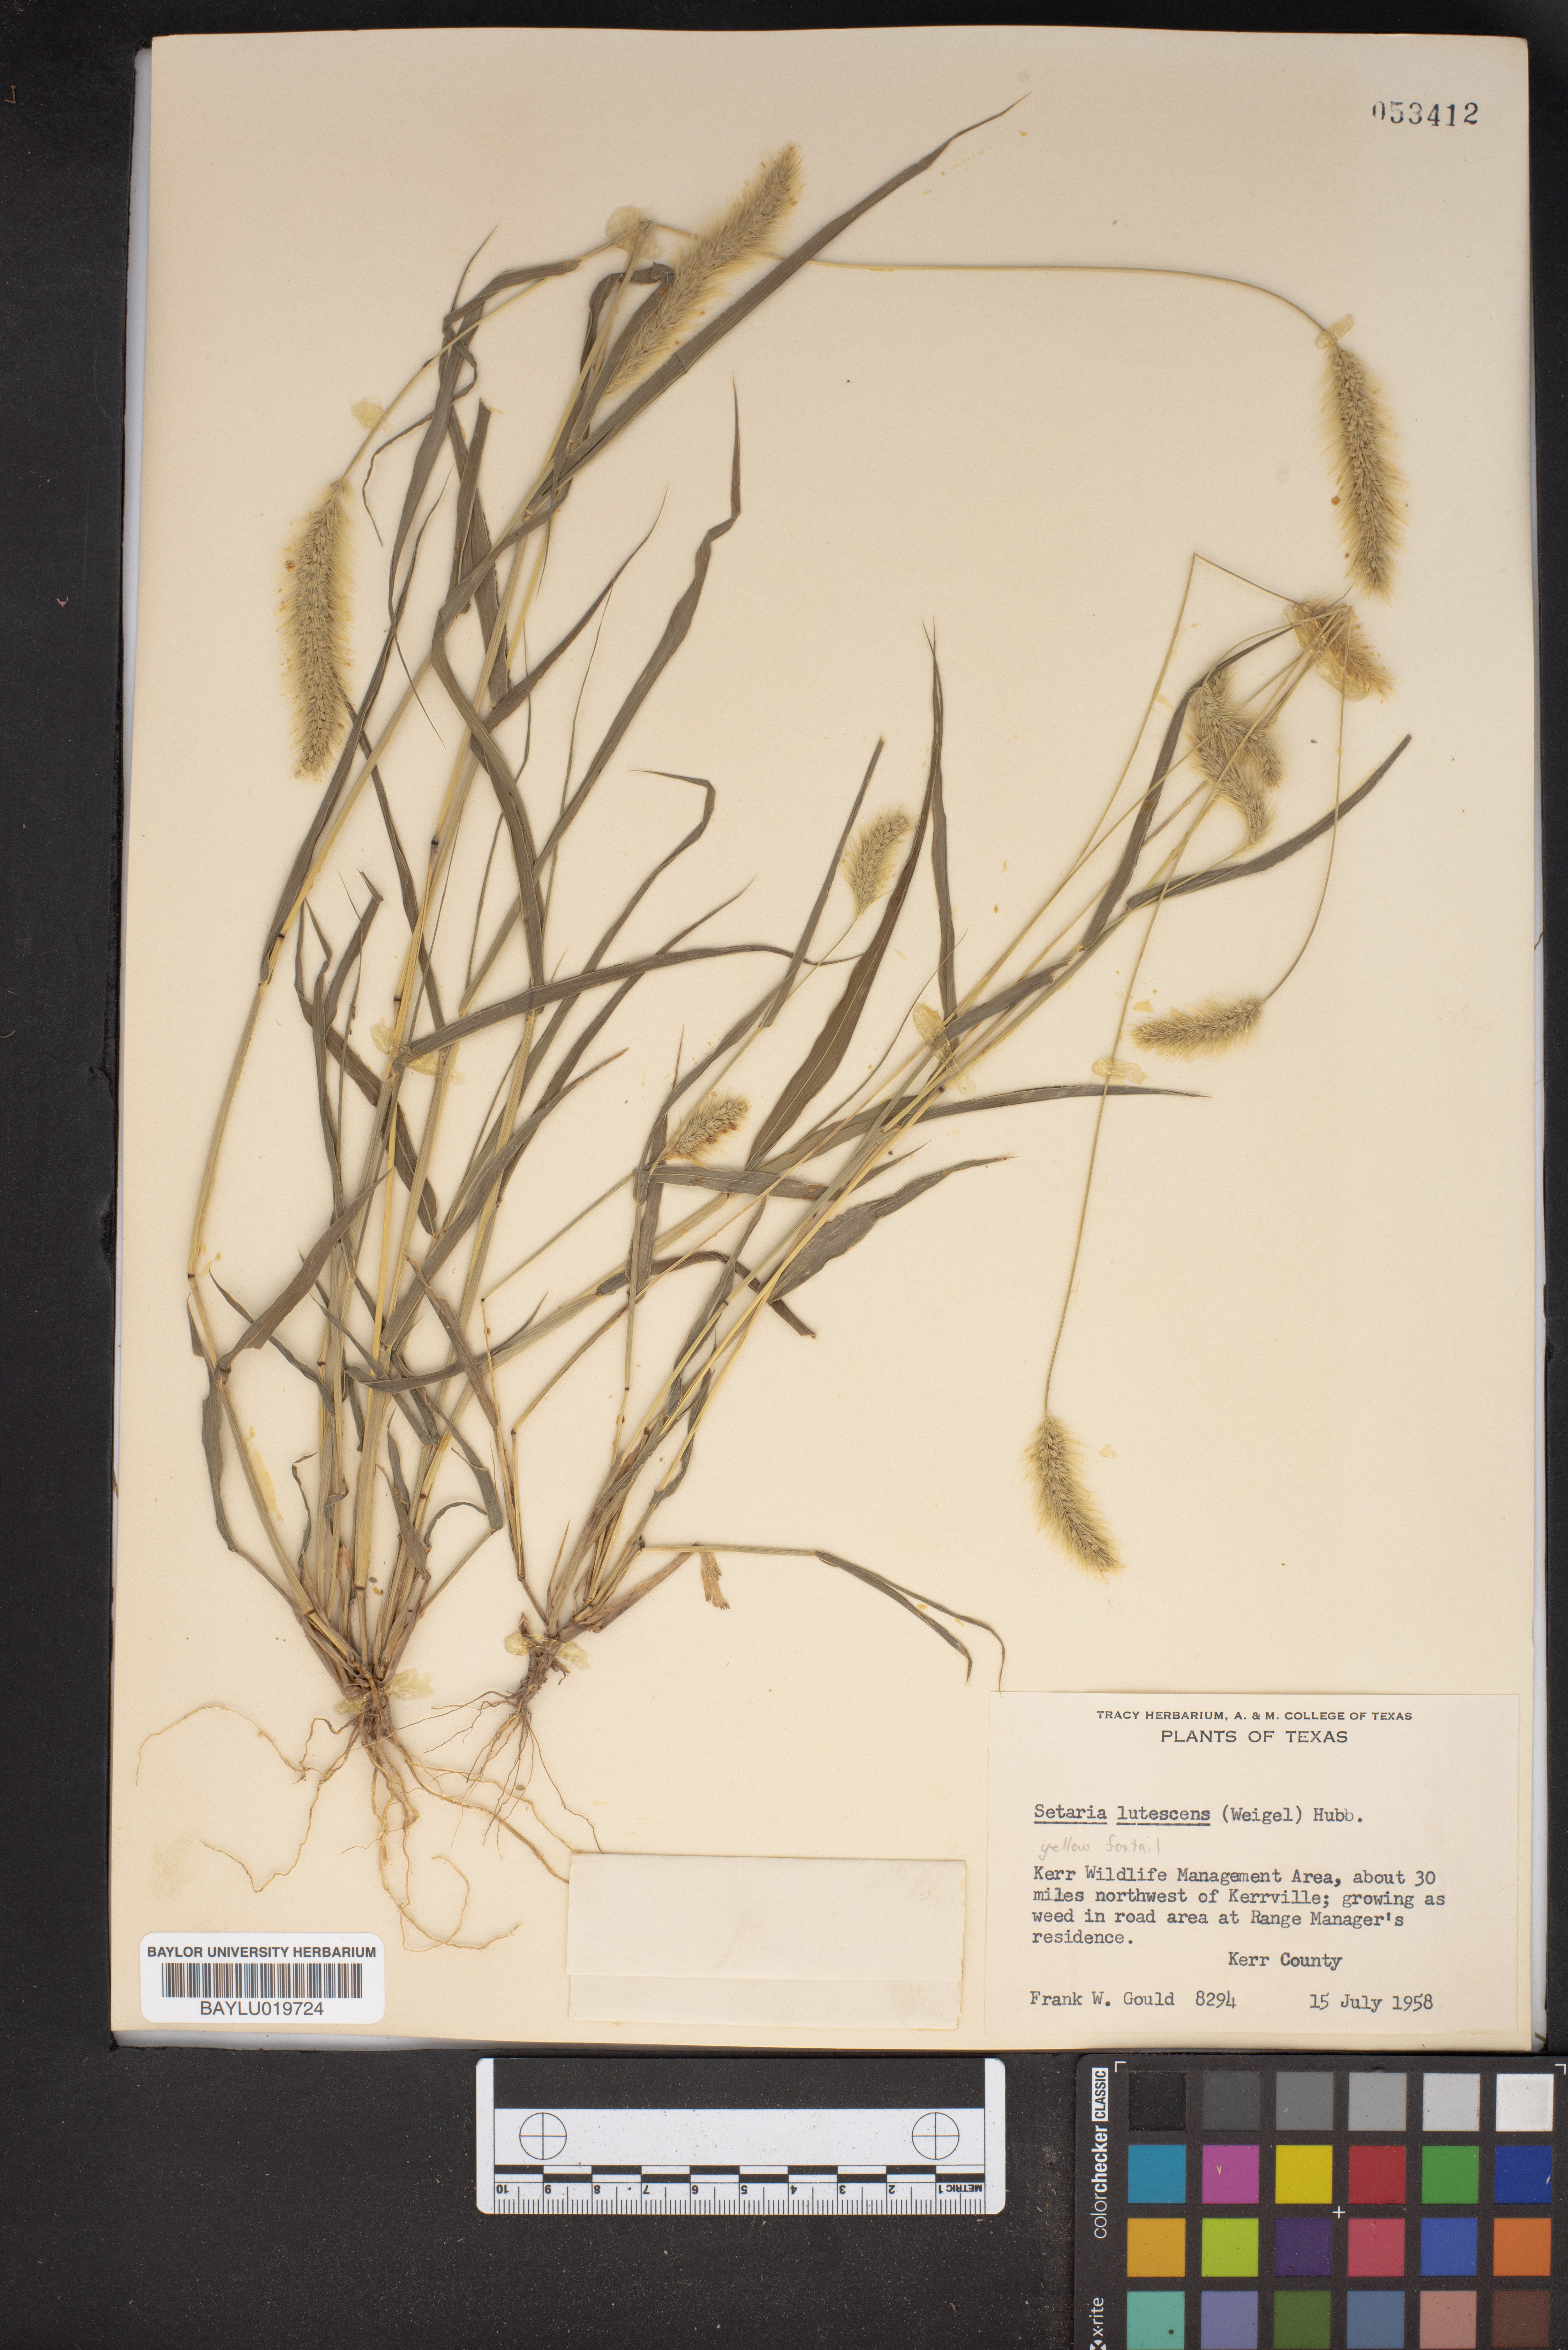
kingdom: Plantae
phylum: Tracheophyta
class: Liliopsida
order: Poales
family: Poaceae
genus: Cenchrus
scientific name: Cenchrus americanus
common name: Pearl millet
